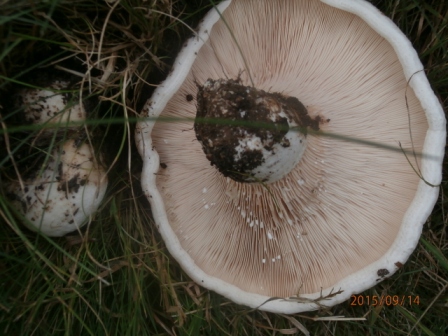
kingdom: Fungi
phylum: Basidiomycota
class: Agaricomycetes
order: Russulales
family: Russulaceae
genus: Lactarius
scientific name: Lactarius controversus
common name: rosabladet mælkehat
